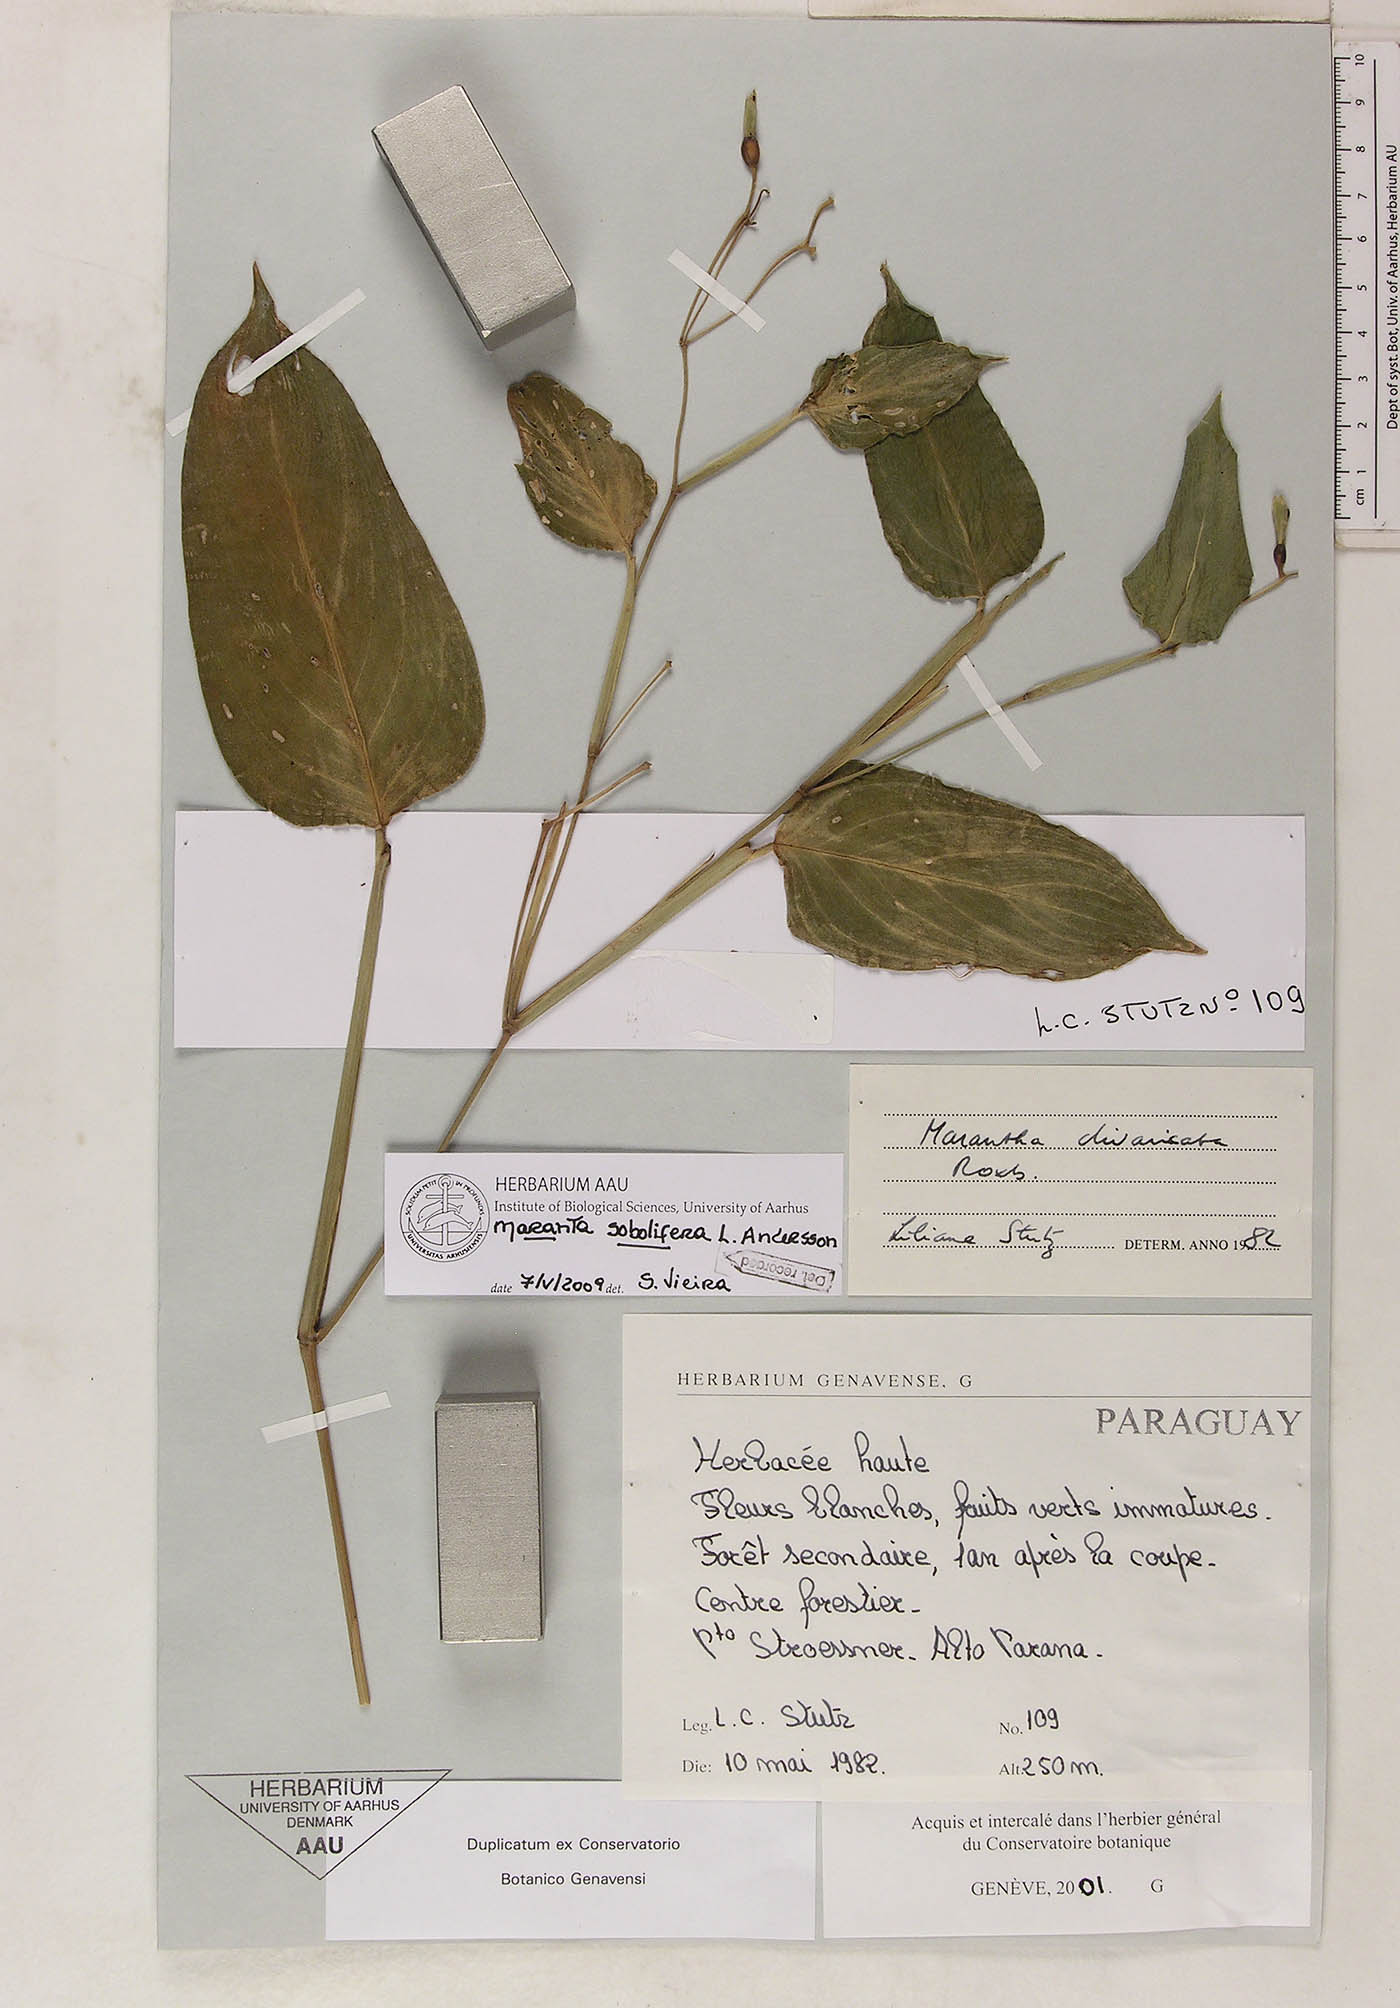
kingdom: Plantae
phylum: Tracheophyta
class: Liliopsida
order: Zingiberales
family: Marantaceae
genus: Maranta
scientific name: Maranta sobolifera
